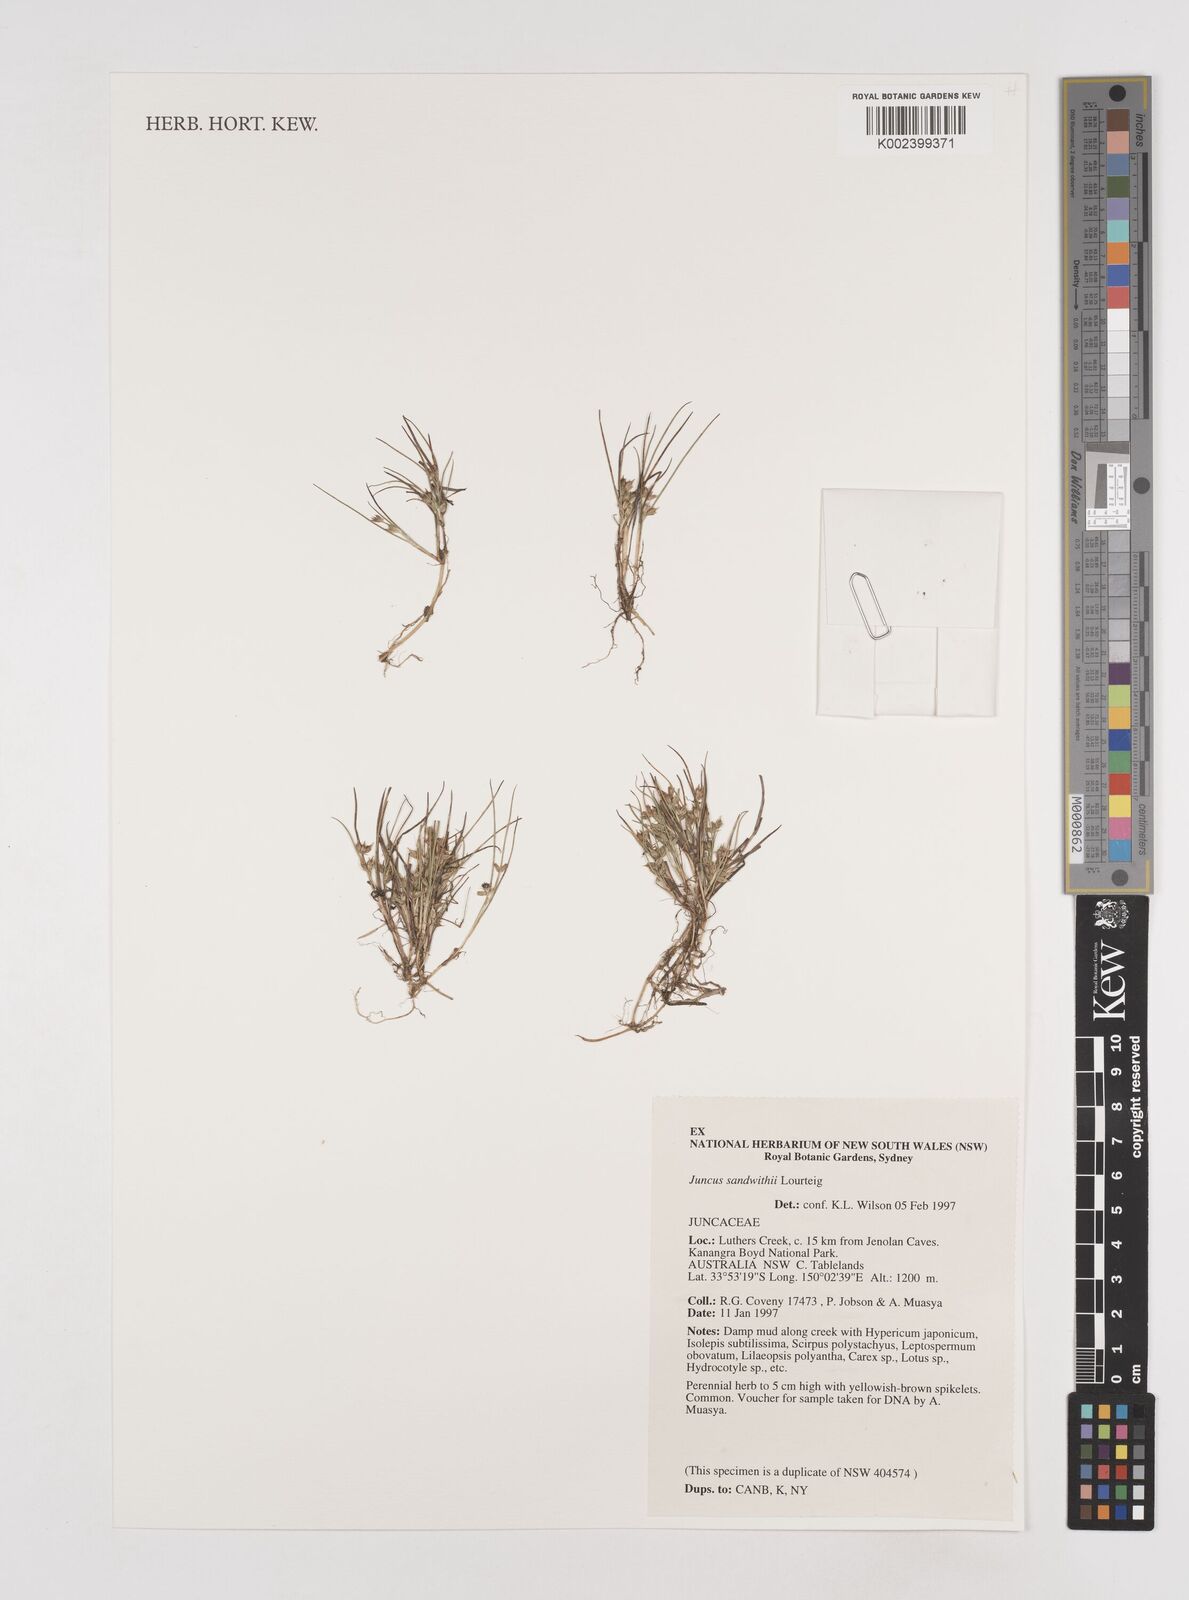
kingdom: Plantae
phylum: Tracheophyta
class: Liliopsida
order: Poales
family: Juncaceae
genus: Juncus
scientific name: Juncus sandwithii
